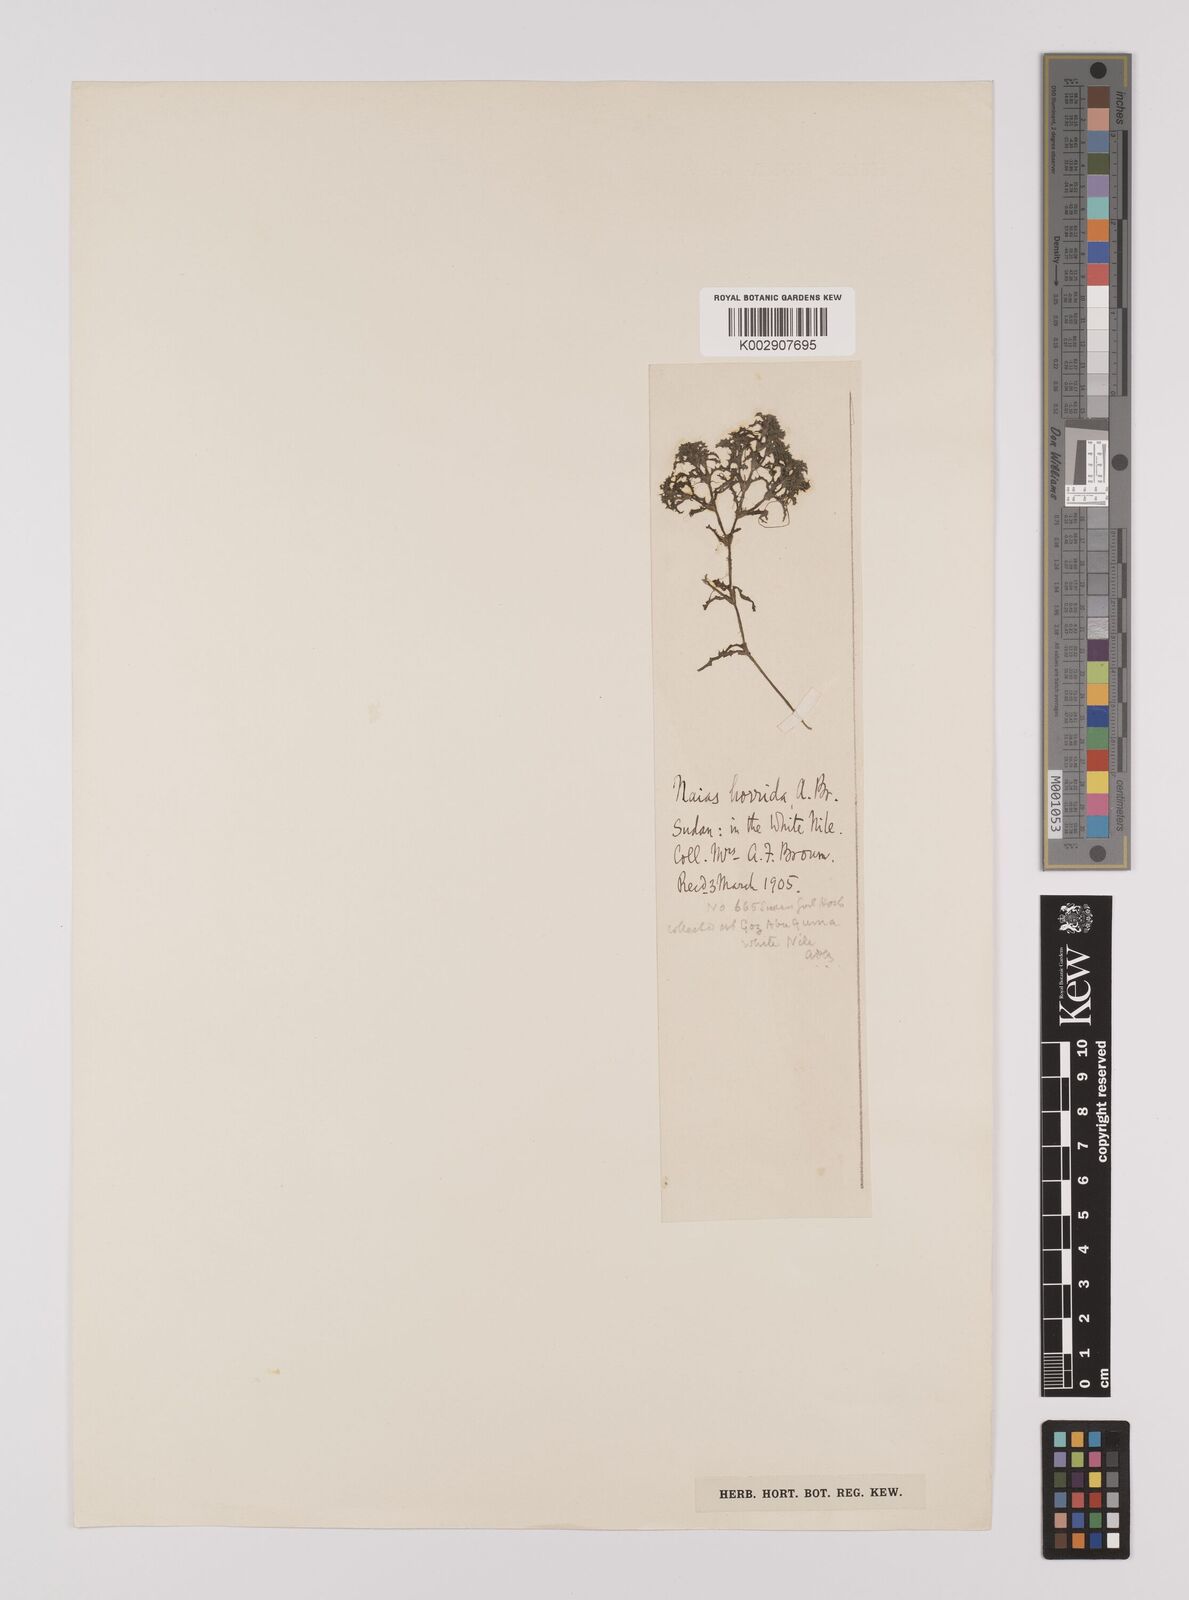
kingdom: Plantae
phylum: Tracheophyta
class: Liliopsida
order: Alismatales
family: Hydrocharitaceae
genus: Najas
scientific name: Najas horrida
